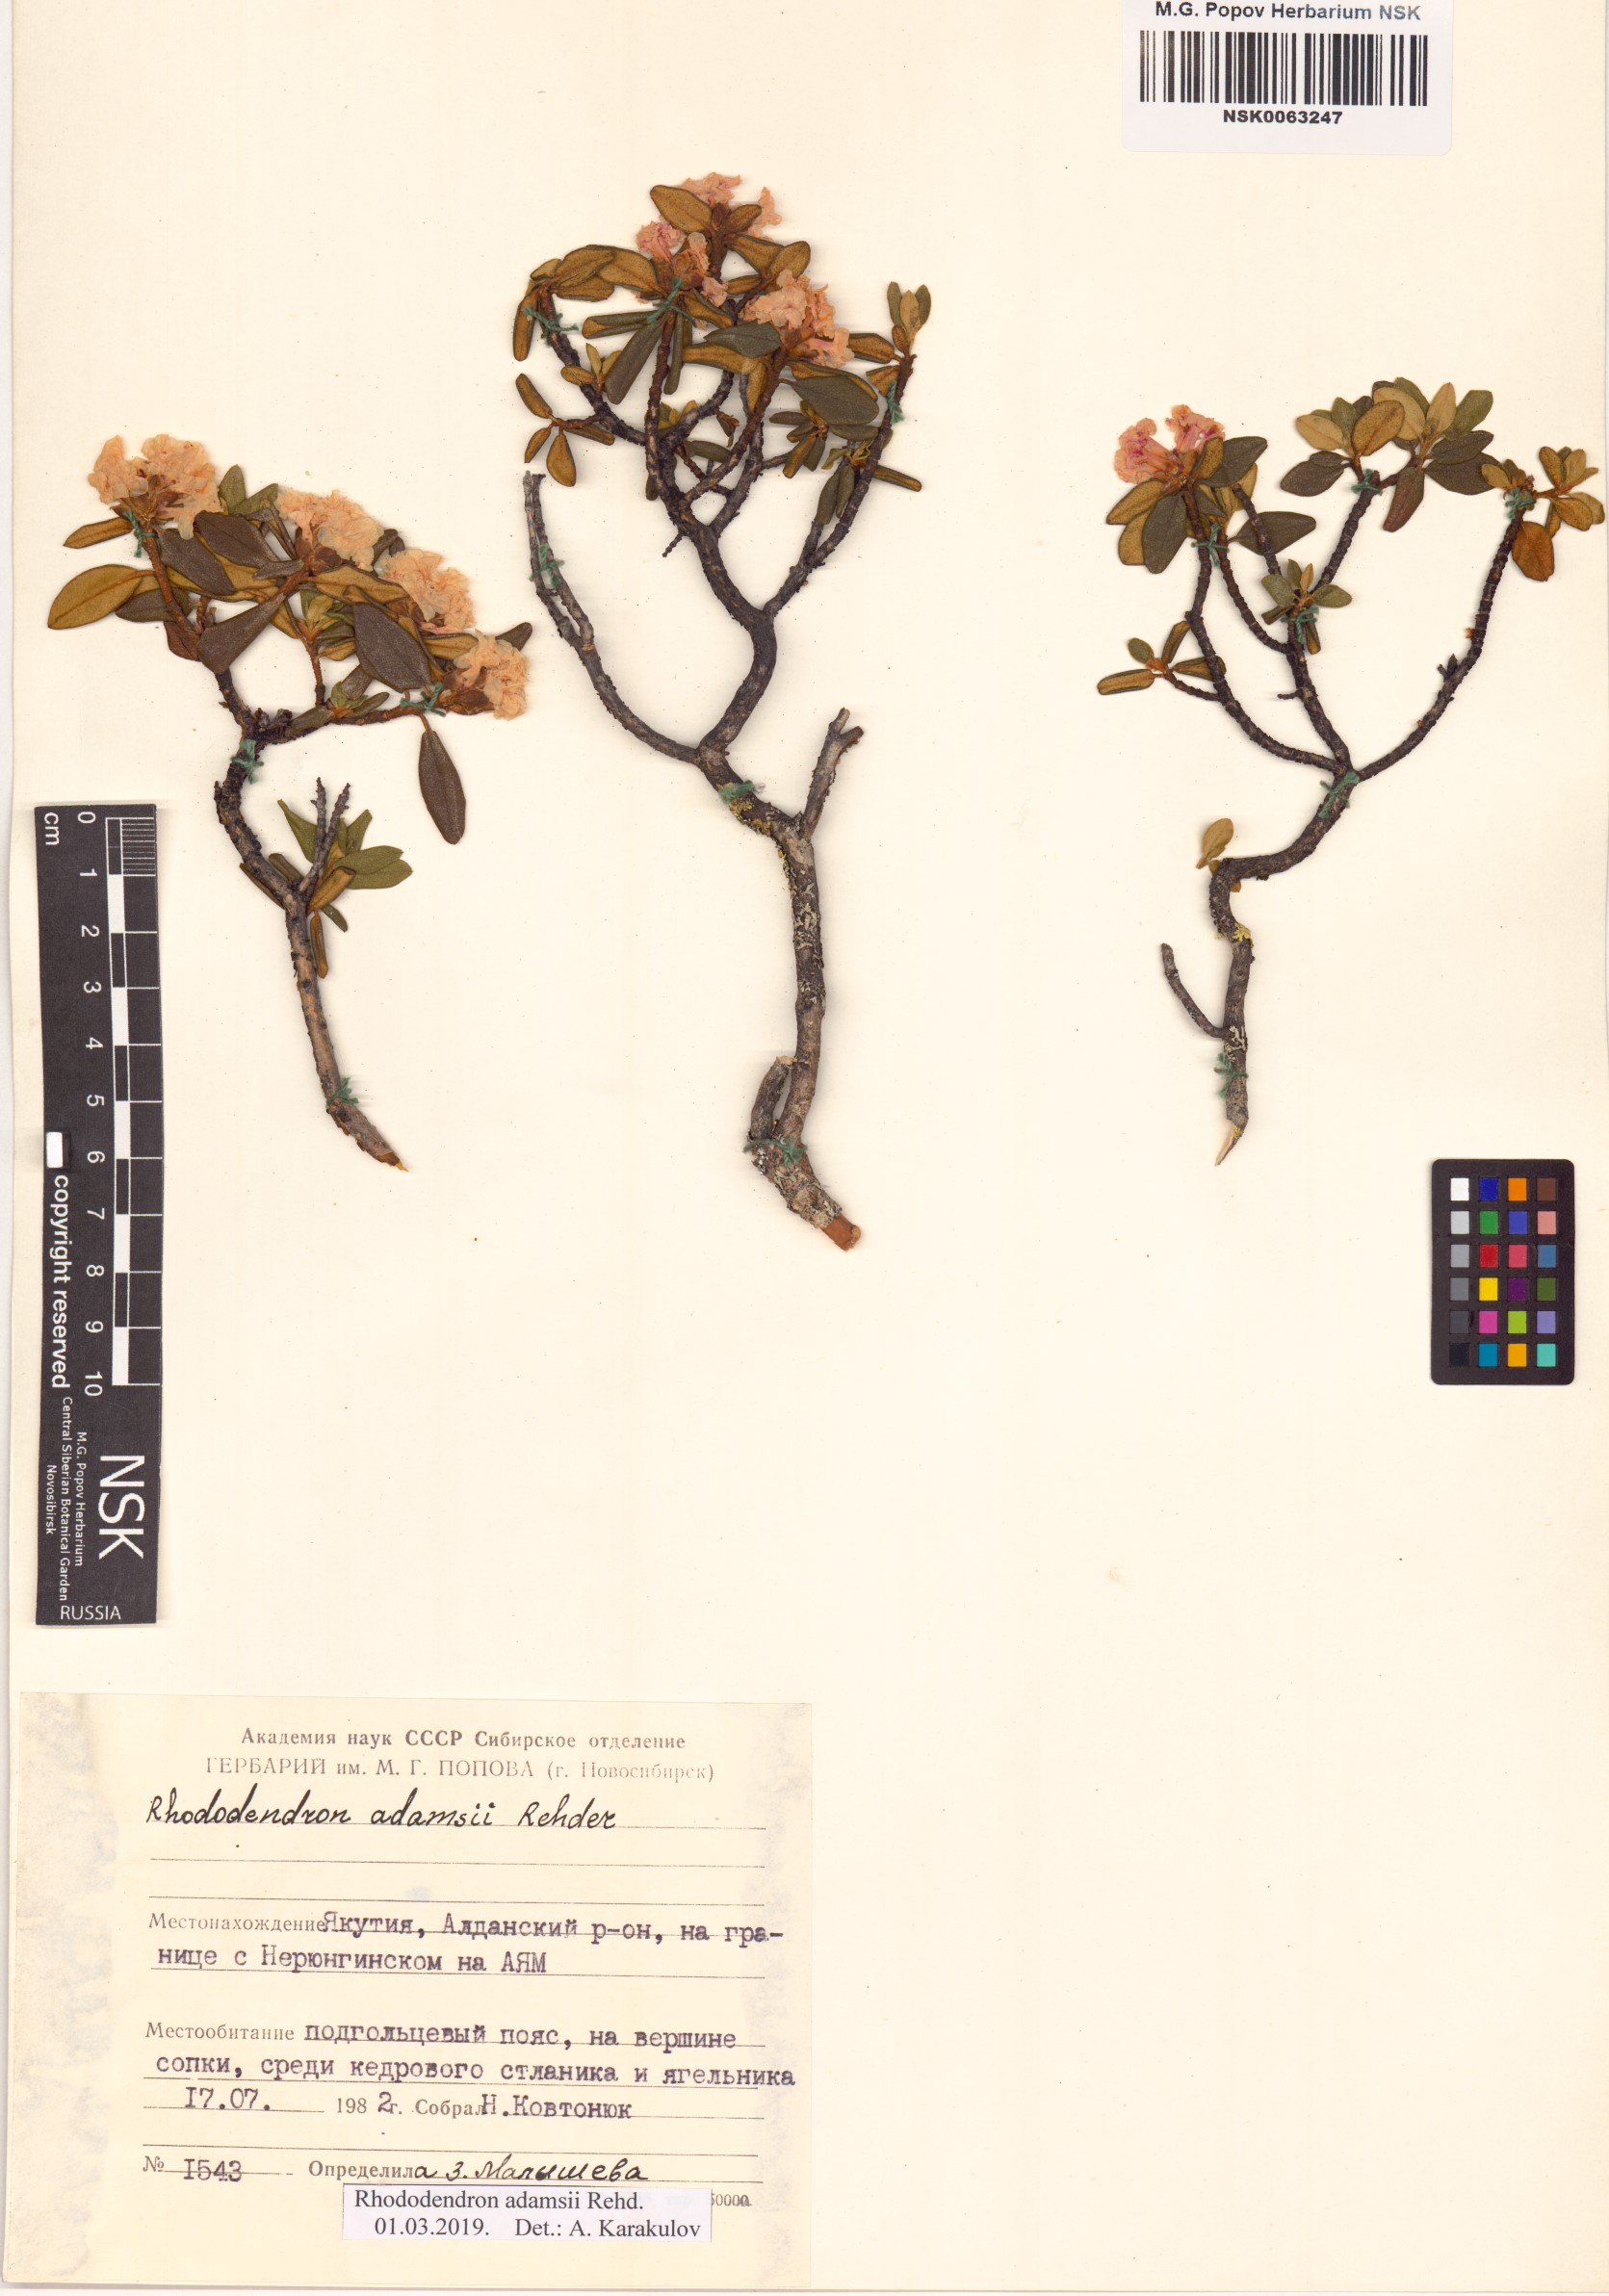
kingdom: Plantae
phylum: Tracheophyta
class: Magnoliopsida
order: Ericales
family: Ericaceae
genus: Rhododendron
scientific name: Rhododendron adamsii
